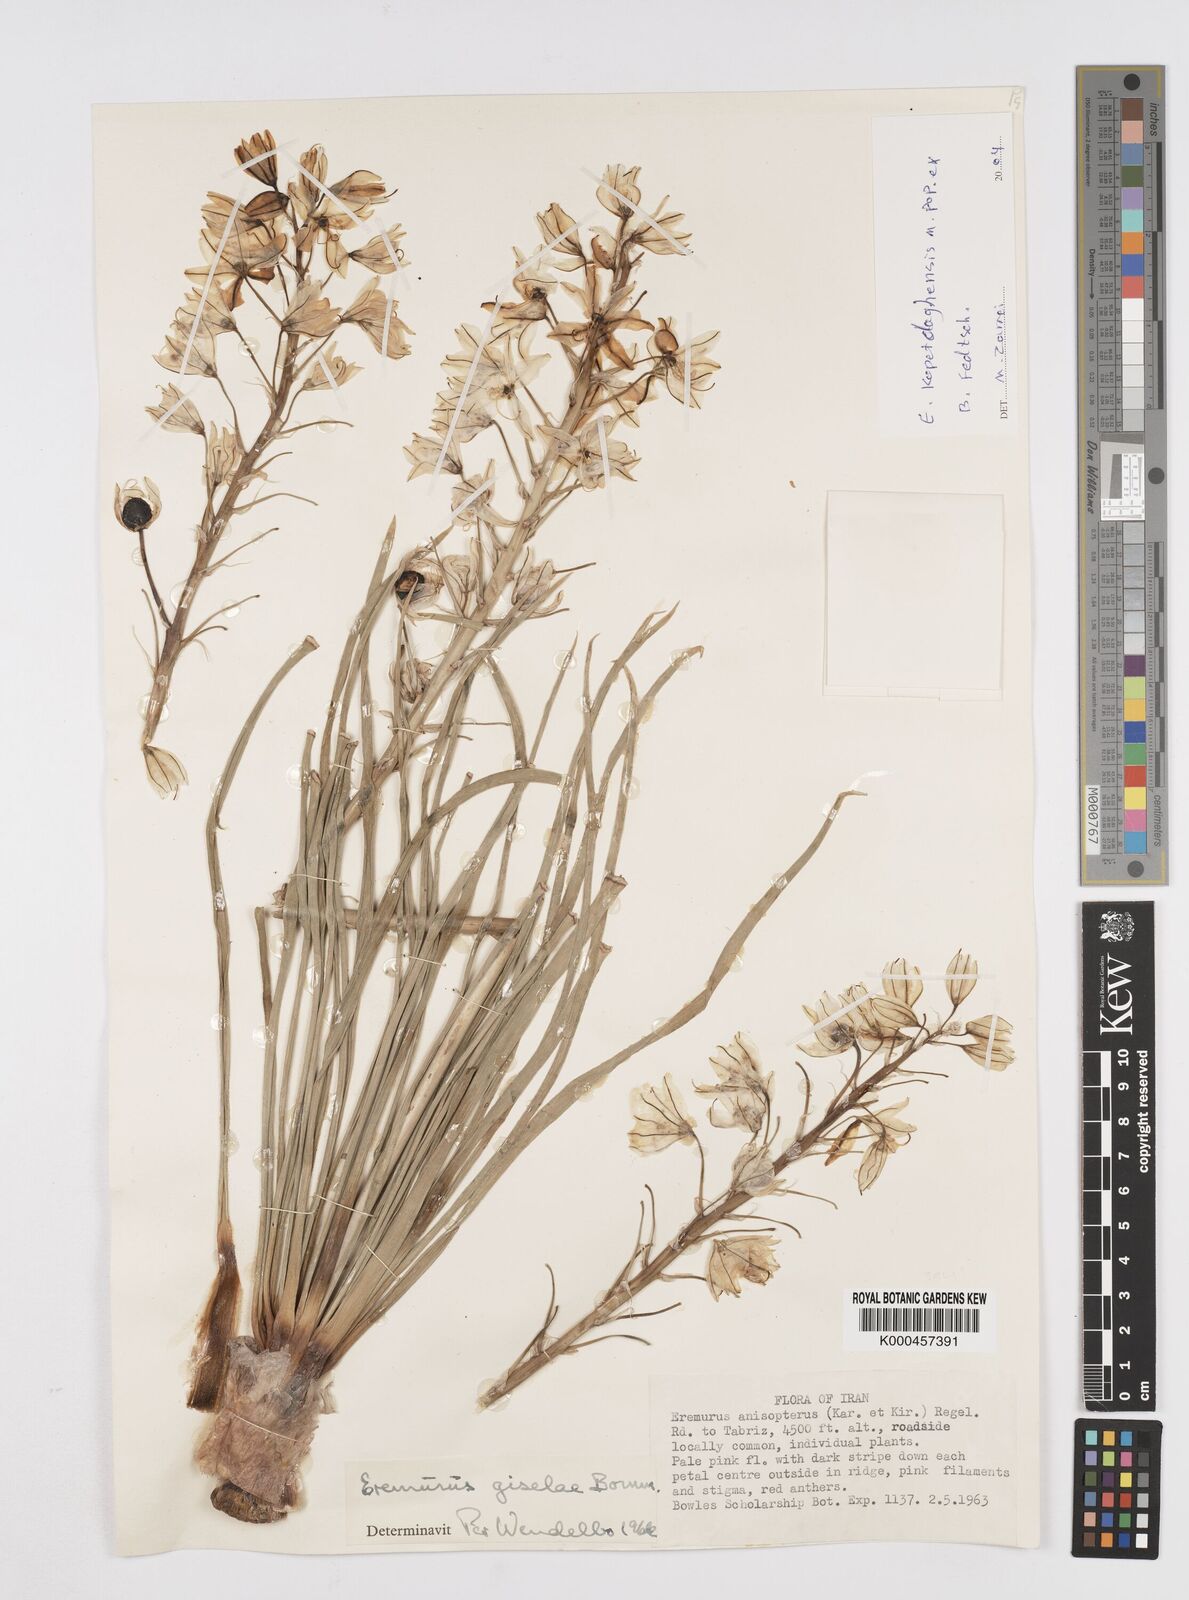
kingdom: Plantae
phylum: Tracheophyta
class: Liliopsida
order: Asparagales
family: Asphodelaceae
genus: Eremurus
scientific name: Eremurus kopet-daghensis
